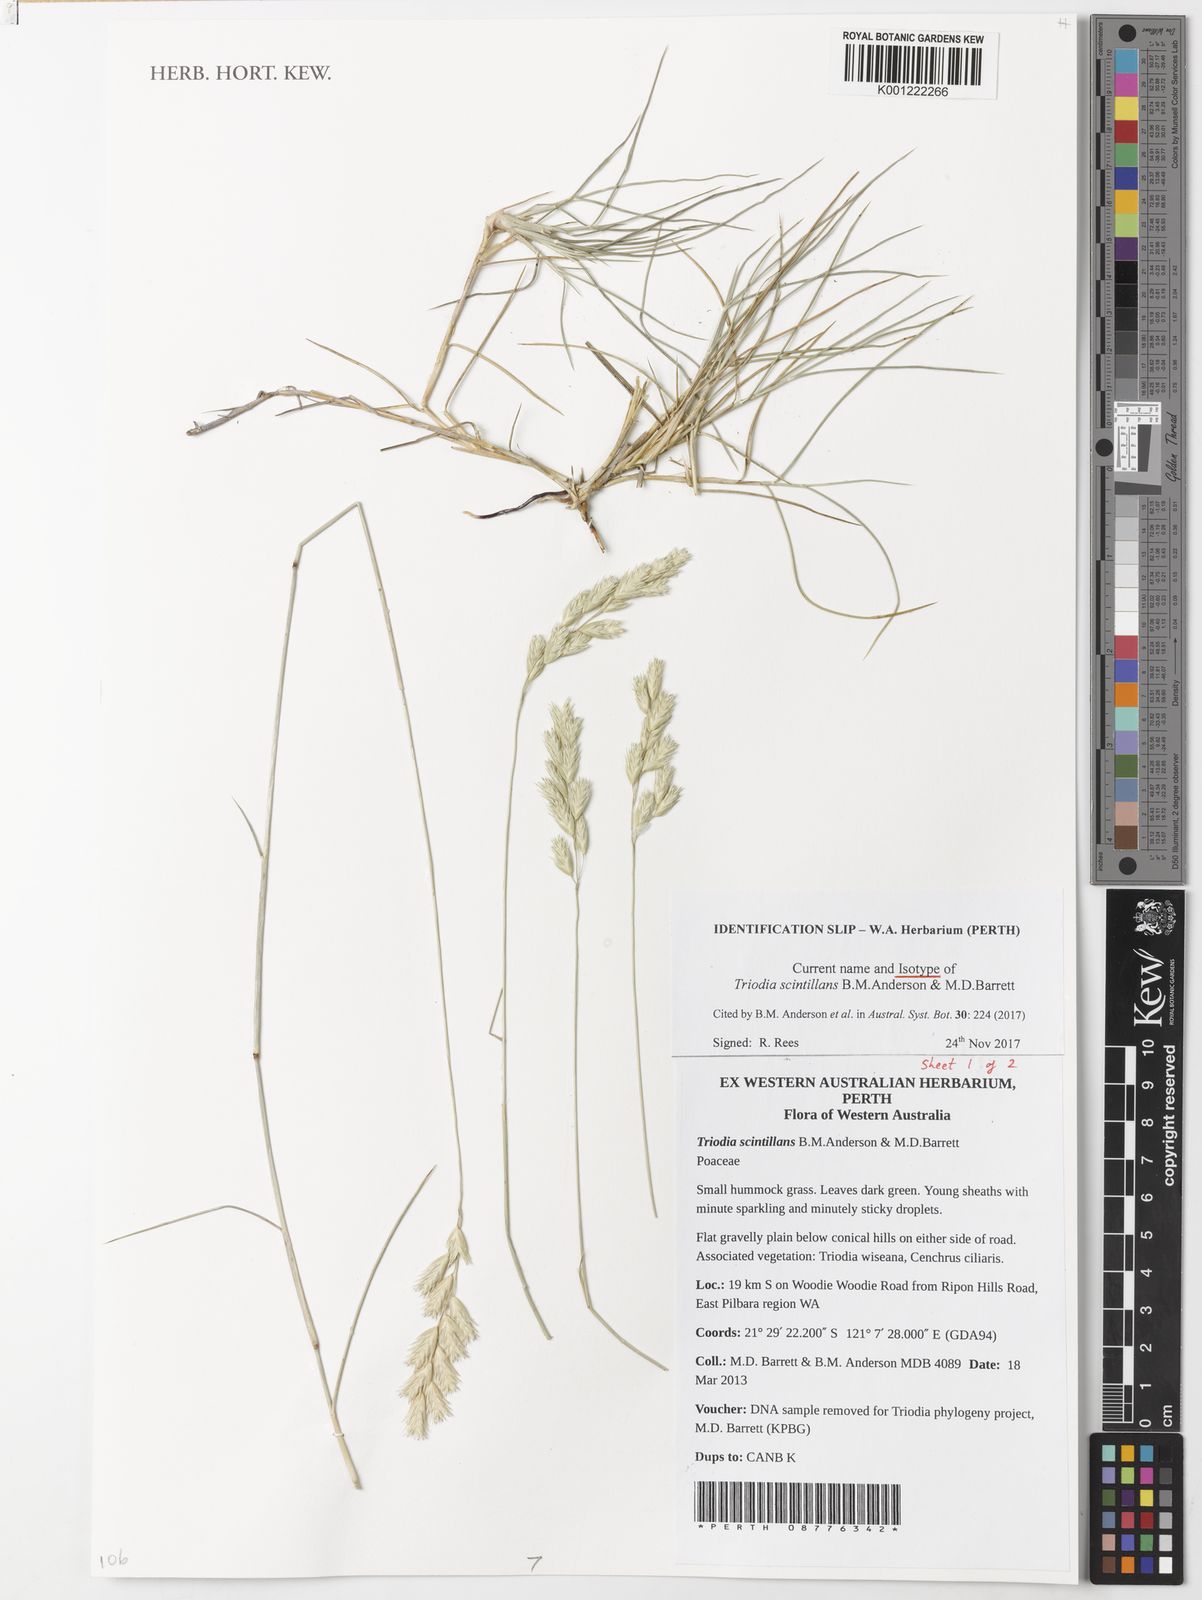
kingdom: Plantae
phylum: Tracheophyta
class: Liliopsida
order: Poales
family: Poaceae
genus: Triodia
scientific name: Triodia scintillans
